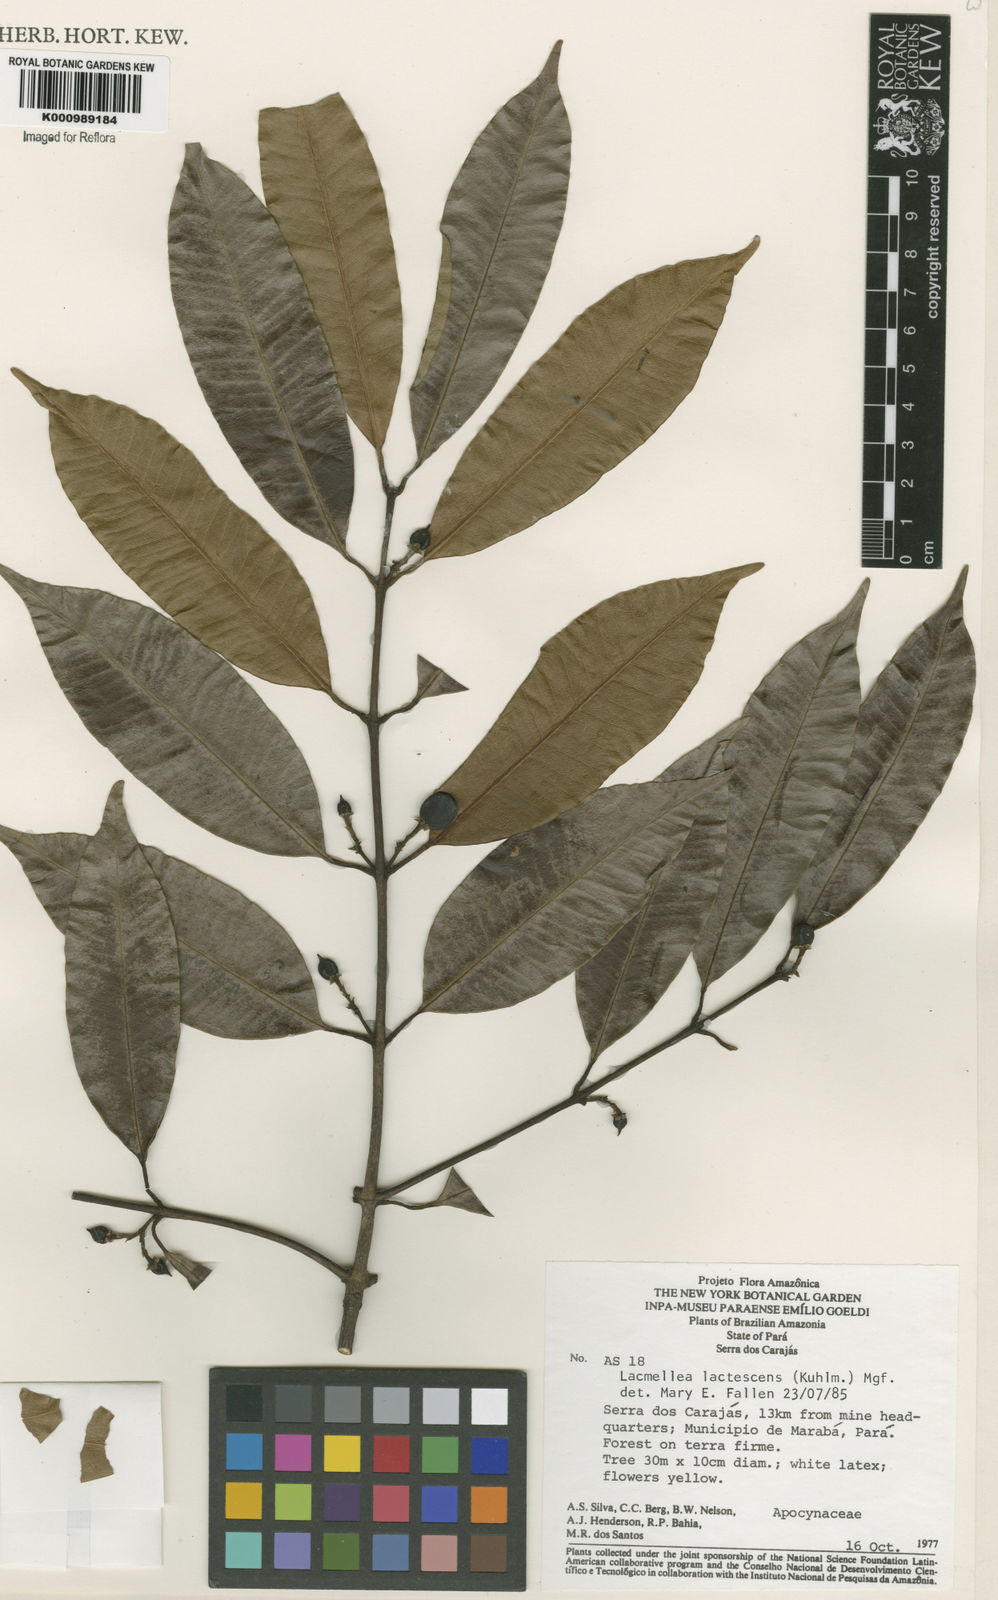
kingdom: Plantae
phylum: Tracheophyta
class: Magnoliopsida
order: Gentianales
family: Apocynaceae
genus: Lacmellea
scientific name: Lacmellea
